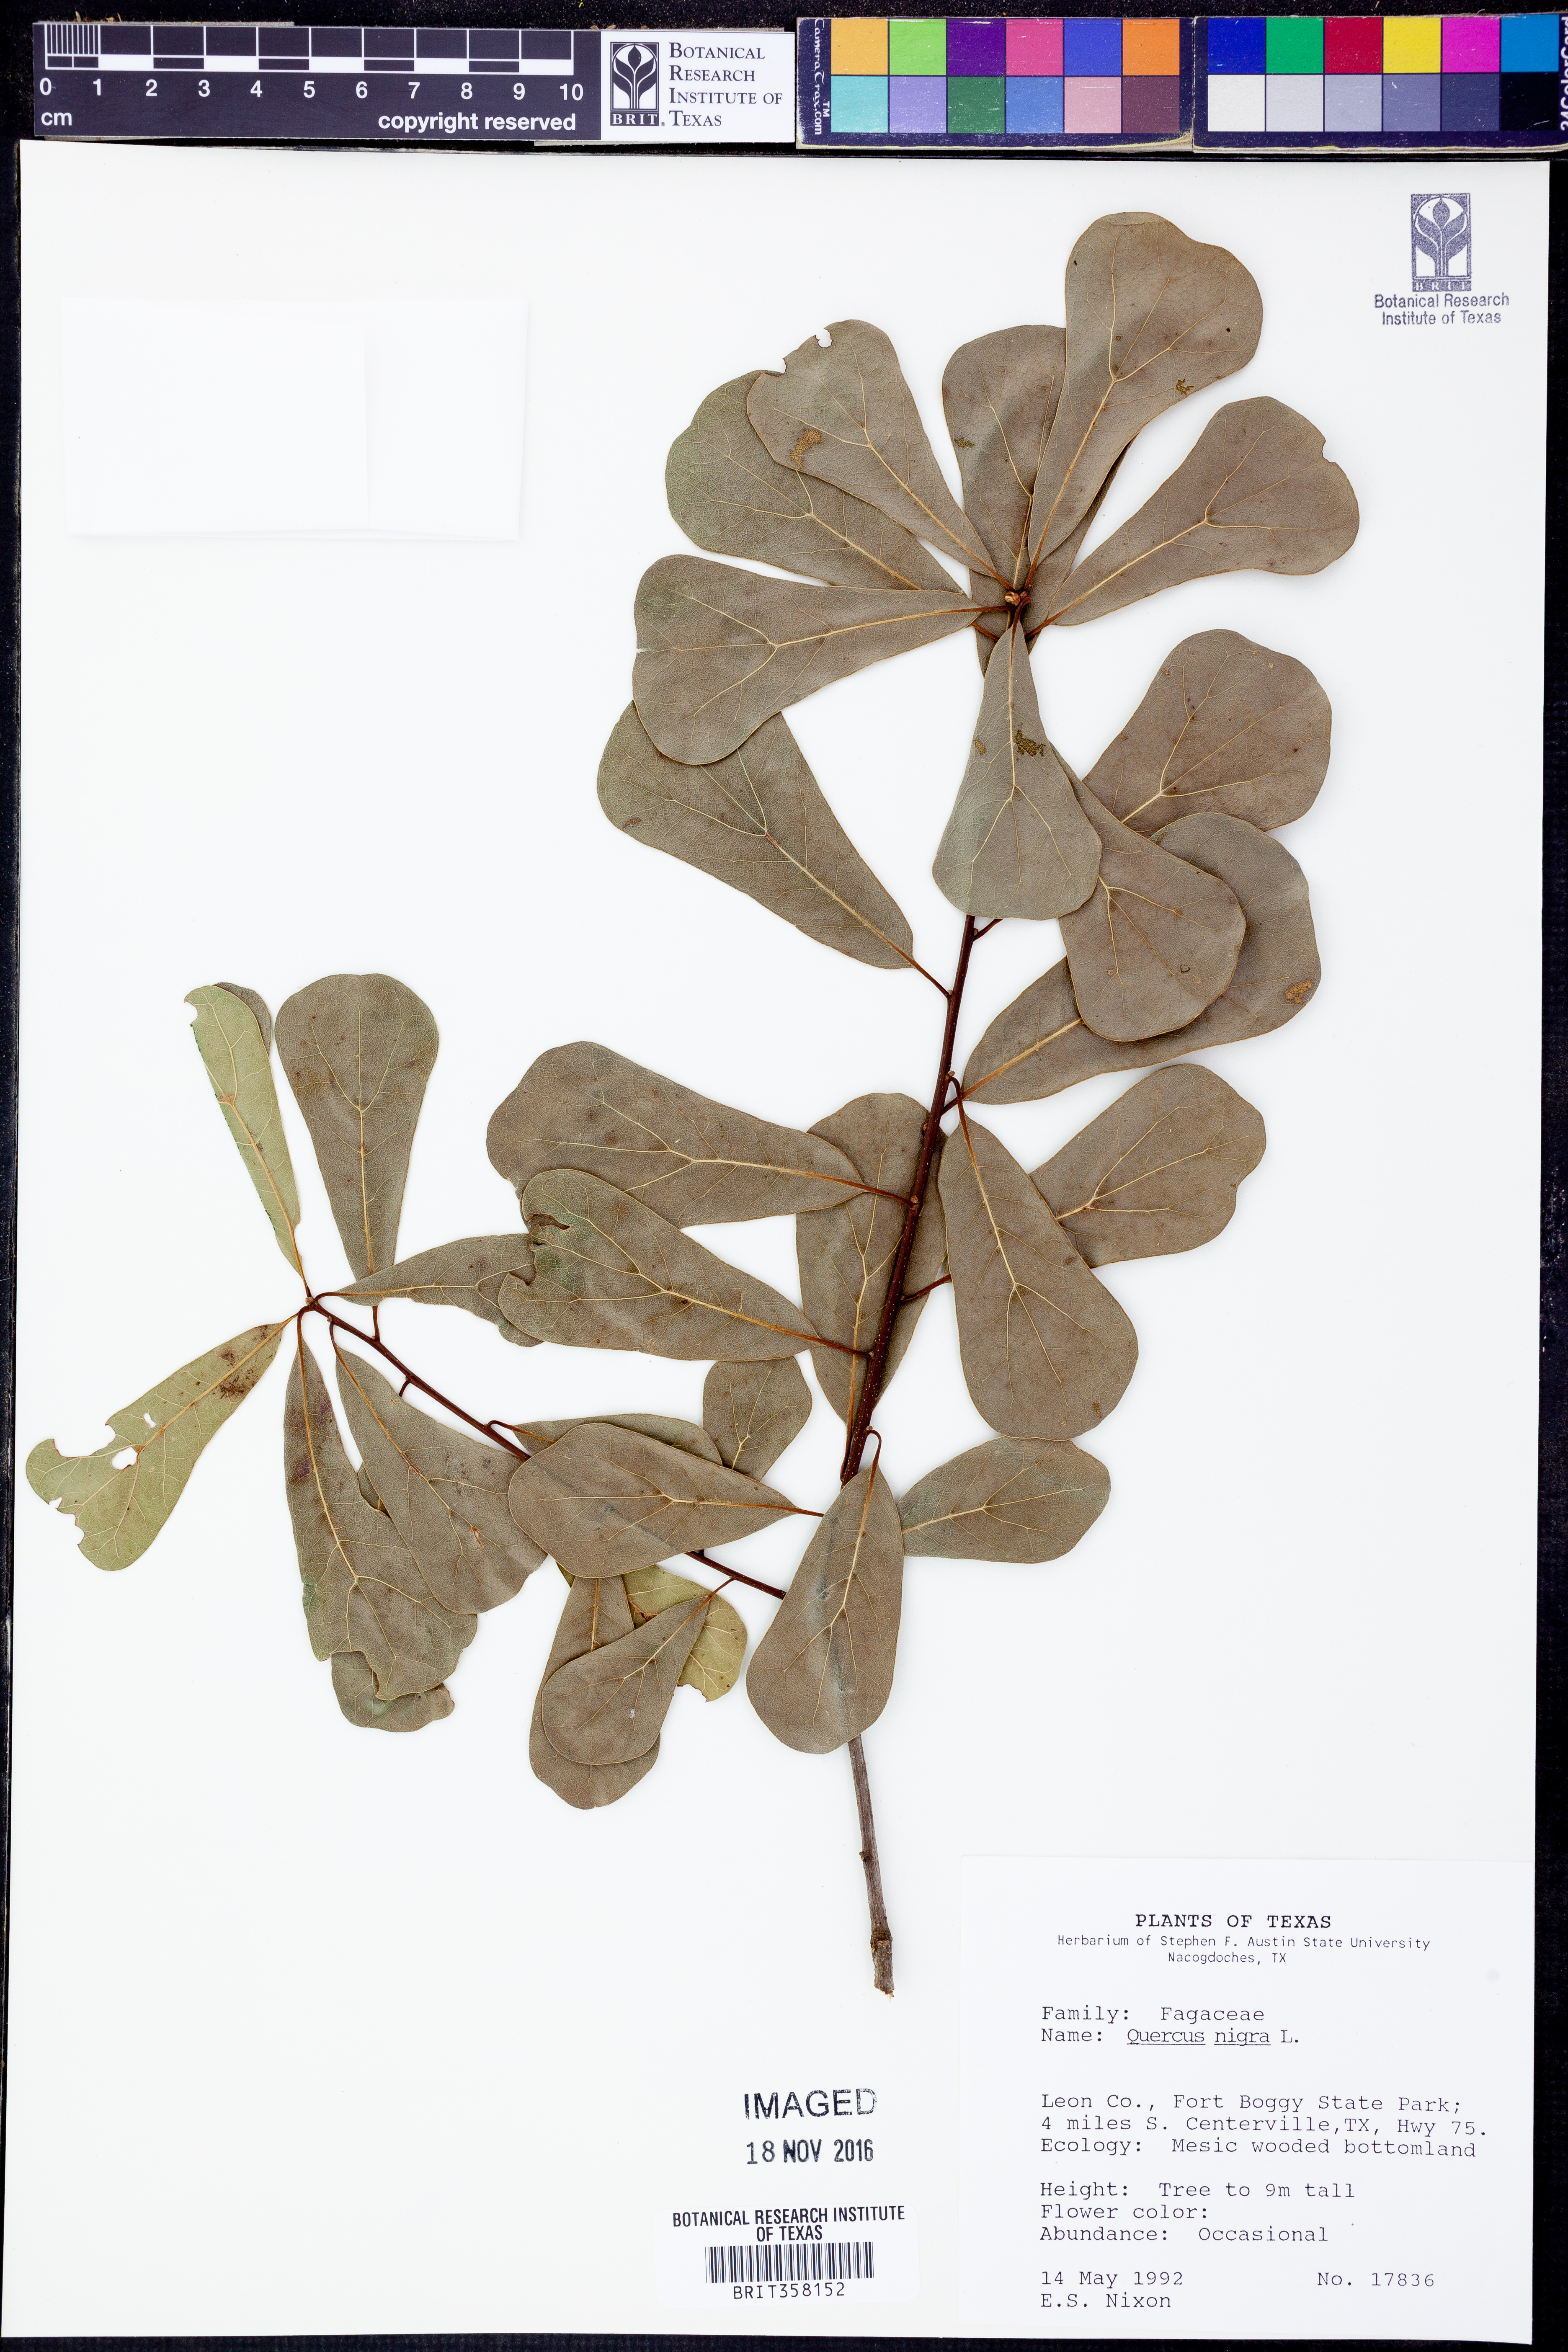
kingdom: Plantae
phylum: Tracheophyta
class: Magnoliopsida
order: Fagales
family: Fagaceae
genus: Quercus
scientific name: Quercus nigra
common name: Water oak
